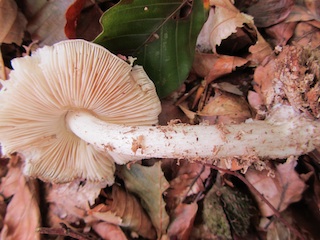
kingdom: Fungi
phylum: Basidiomycota
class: Agaricomycetes
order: Agaricales
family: Pluteaceae
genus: Pluteus
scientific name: Pluteus salicinus
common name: stiv skærmhat
